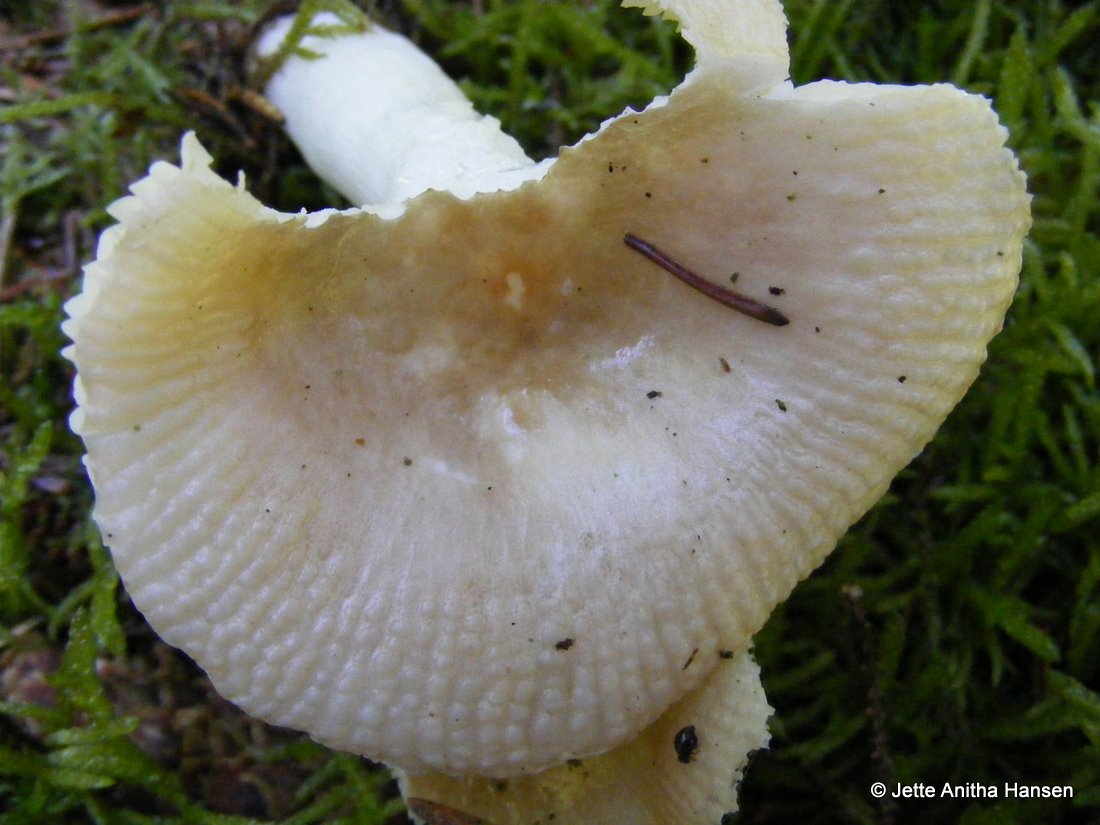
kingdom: Fungi
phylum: Basidiomycota
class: Agaricomycetes
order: Russulales
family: Russulaceae
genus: Russula
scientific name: Russula nauseosa
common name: spinkel skørhat
